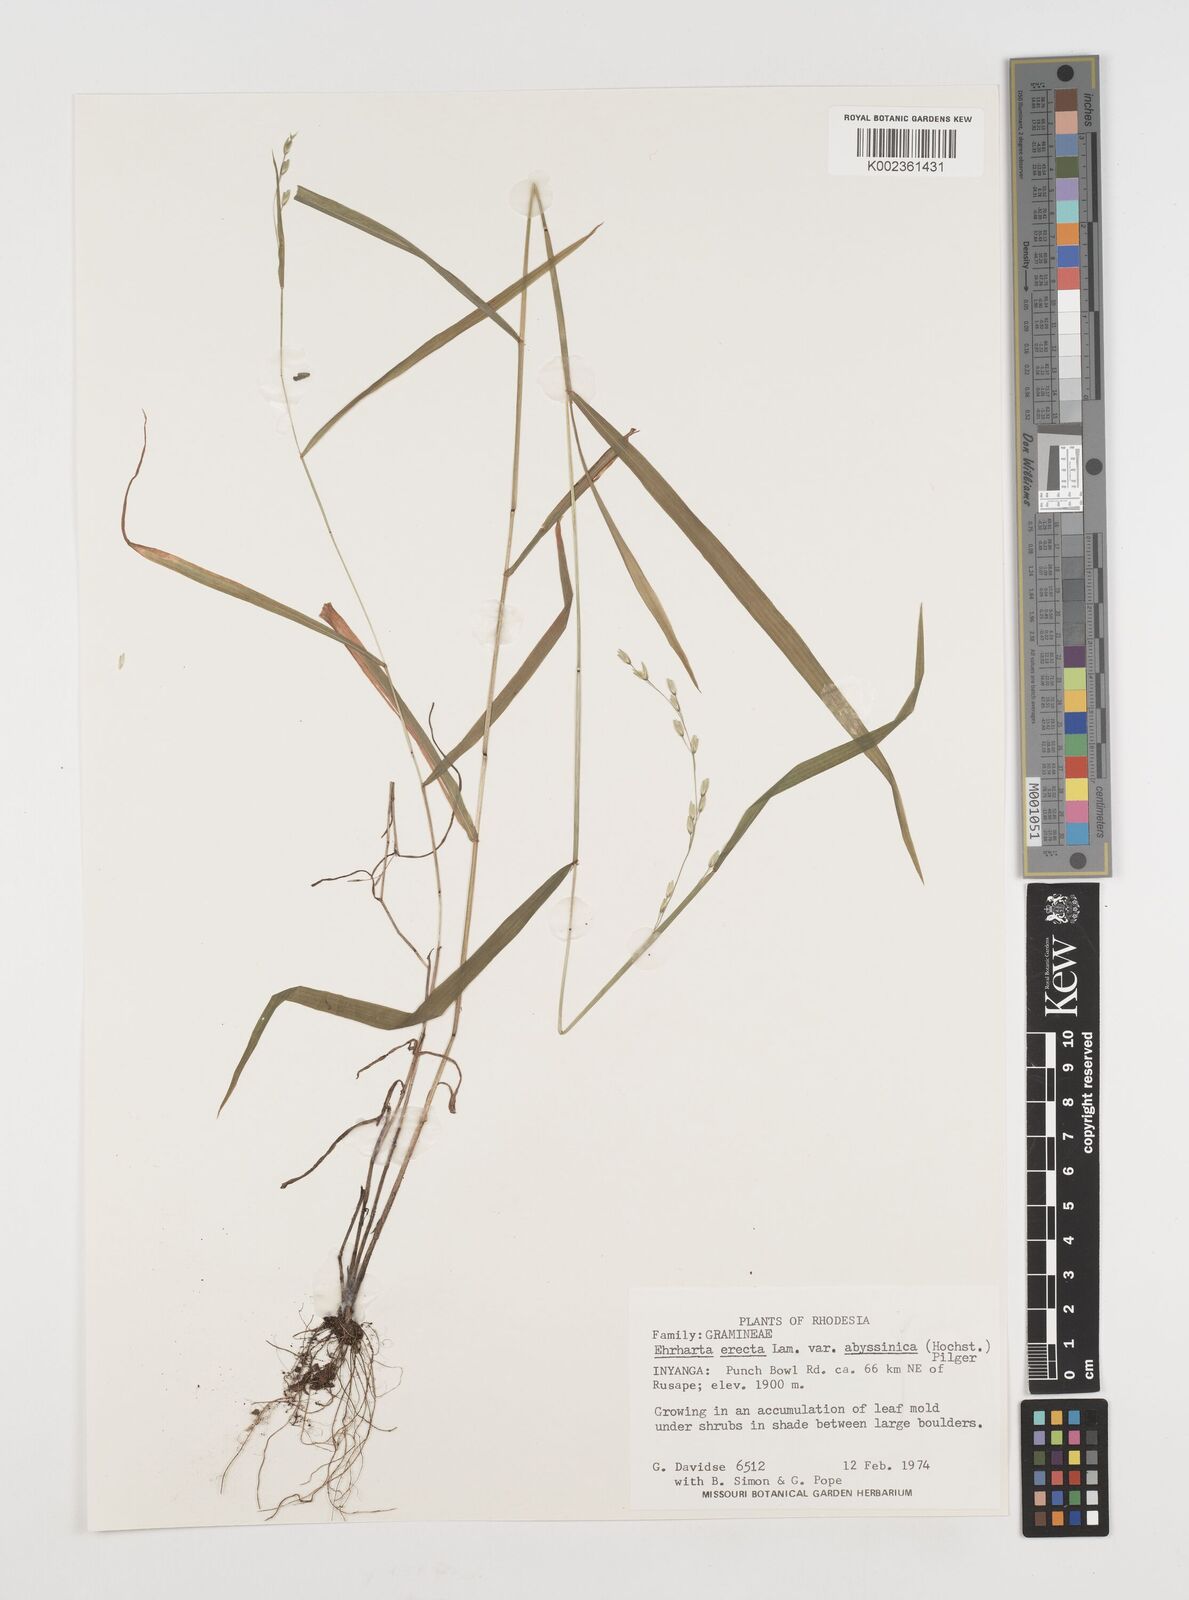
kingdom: Plantae
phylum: Tracheophyta
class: Liliopsida
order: Poales
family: Poaceae
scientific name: Poaceae
